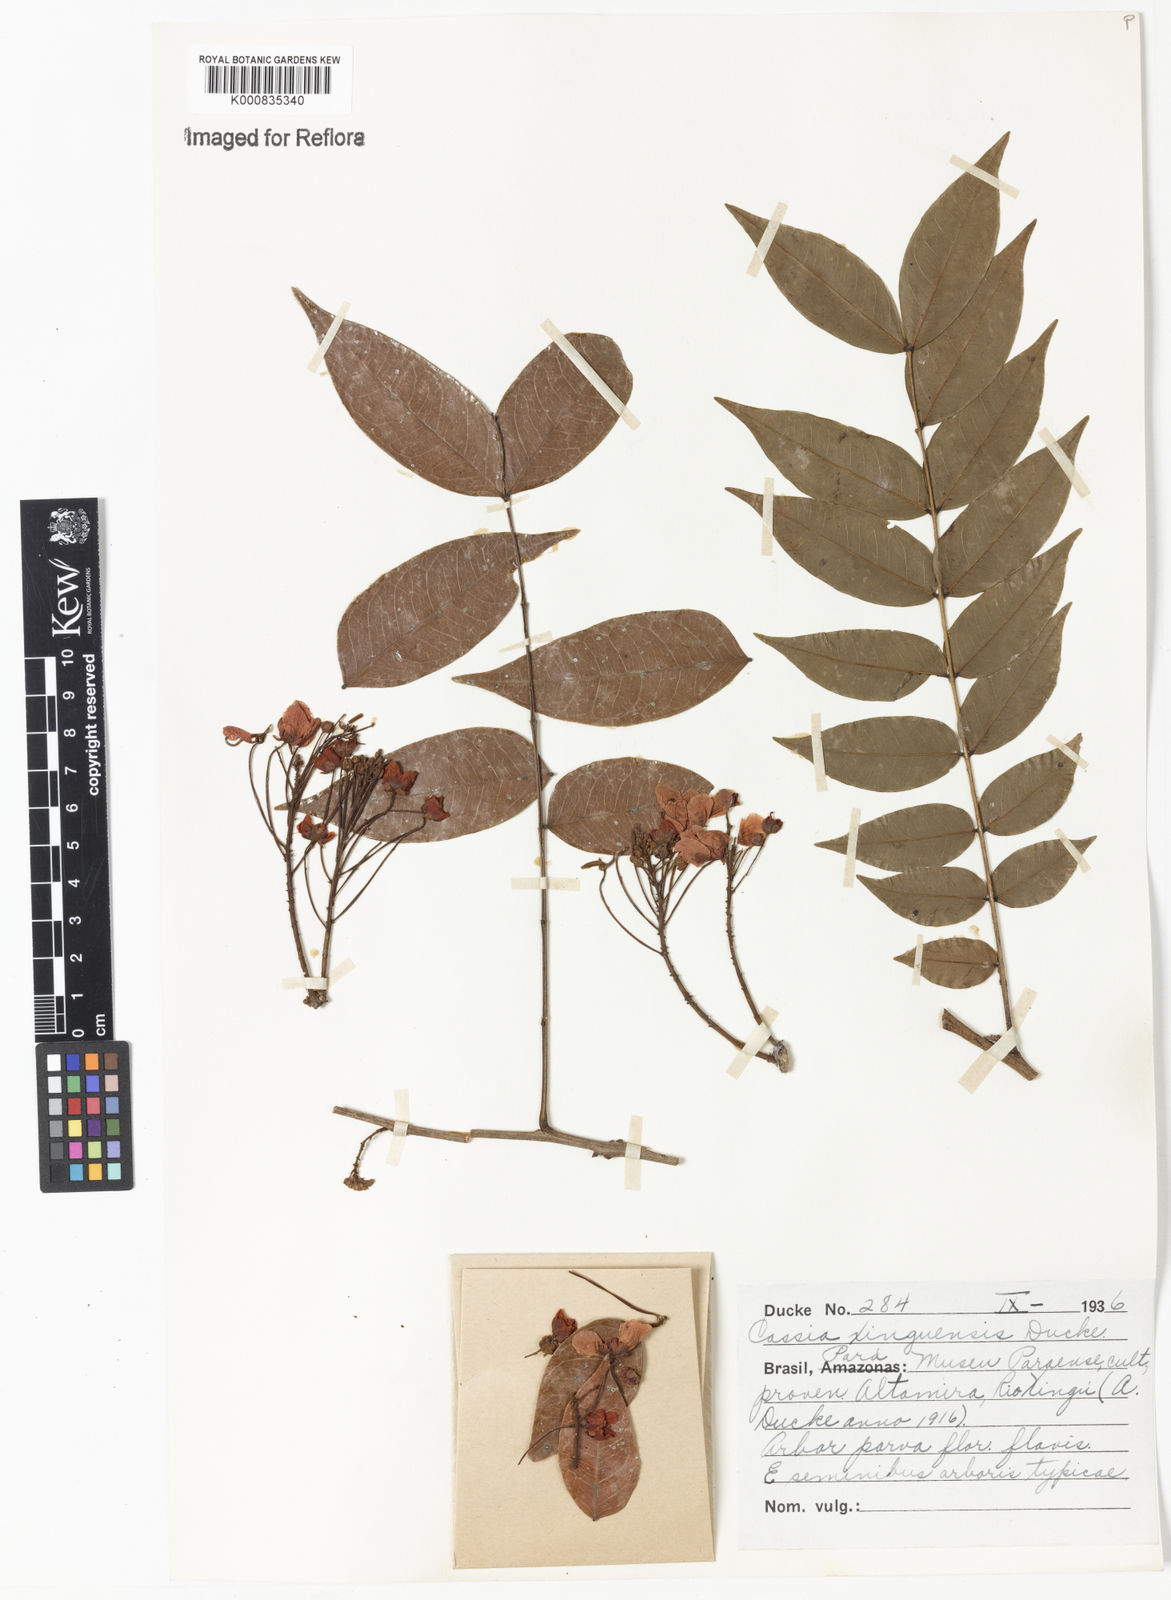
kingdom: Plantae
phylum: Tracheophyta
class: Magnoliopsida
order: Fabales
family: Fabaceae
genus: Chamaecrista
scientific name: Chamaecrista xinguensis
